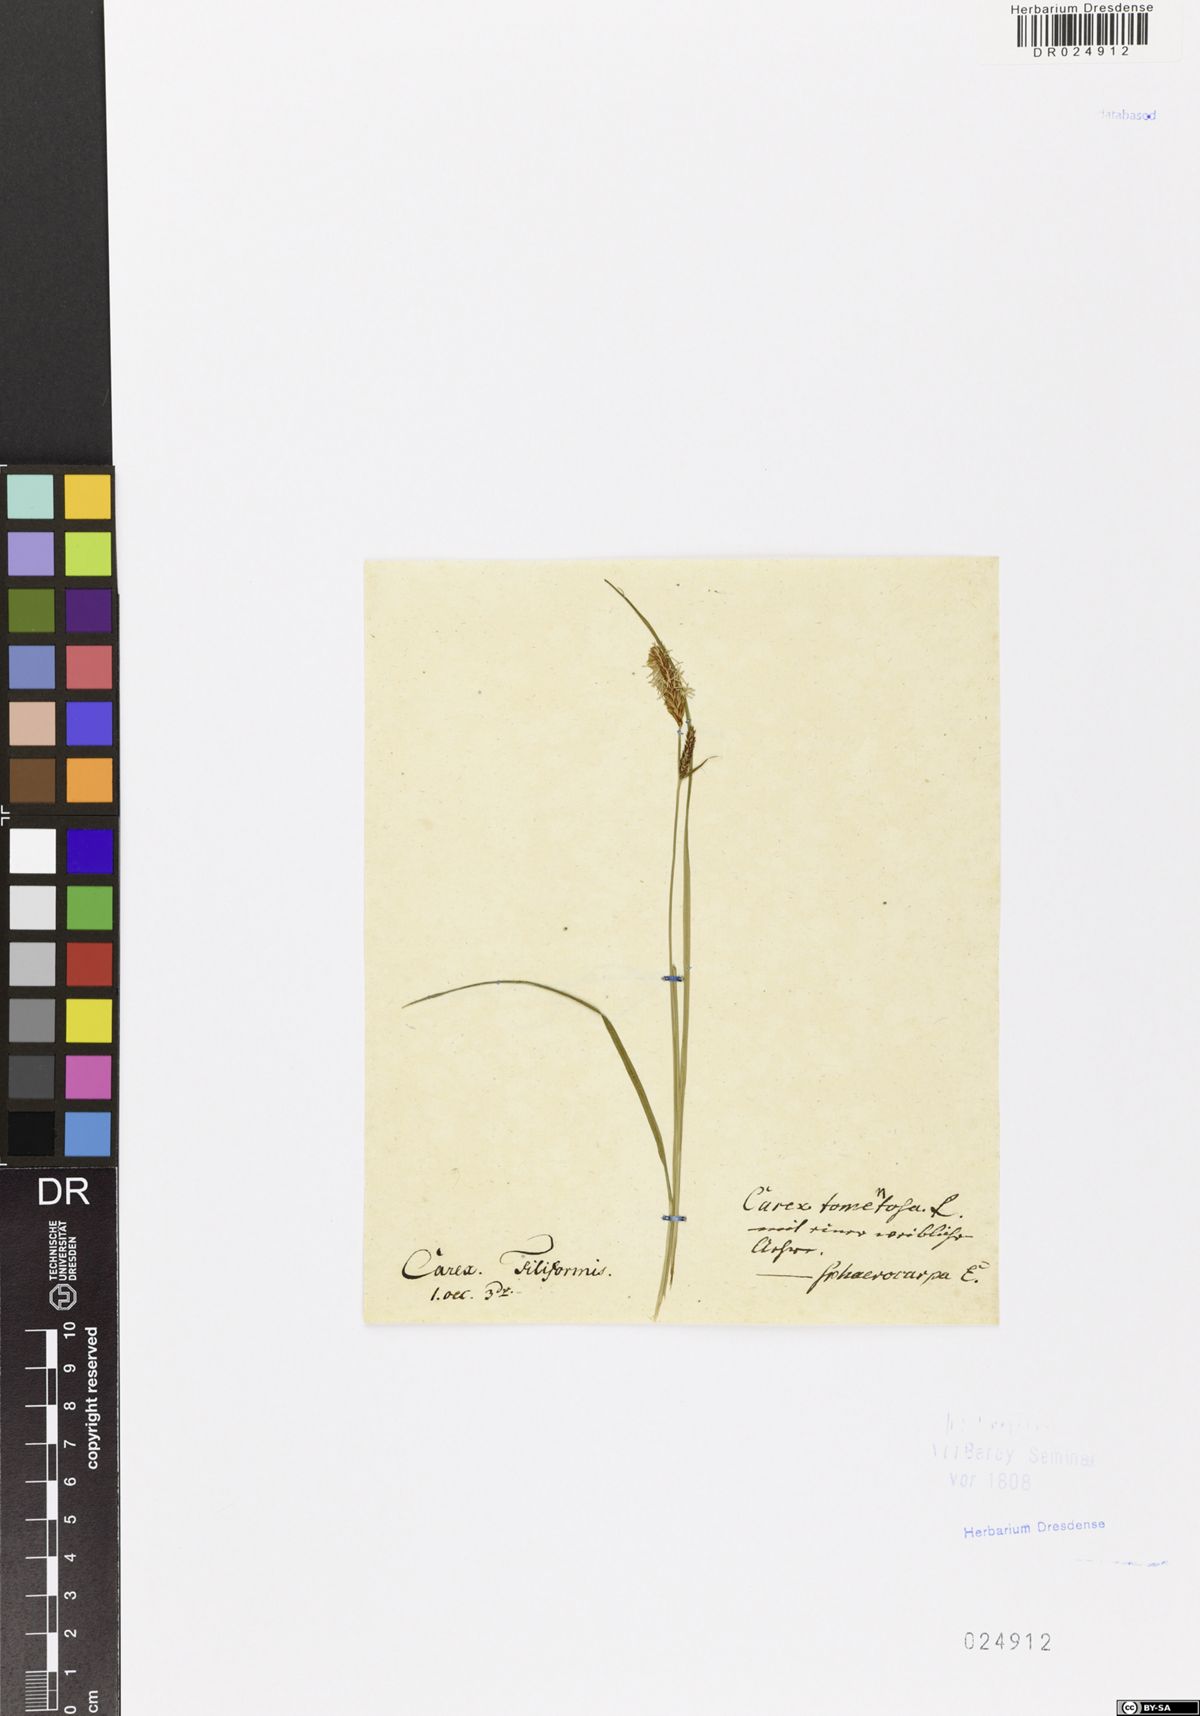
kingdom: Plantae
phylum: Tracheophyta
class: Liliopsida
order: Poales
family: Cyperaceae
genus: Carex
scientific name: Carex tomentosa
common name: Downy-fruited sedge
